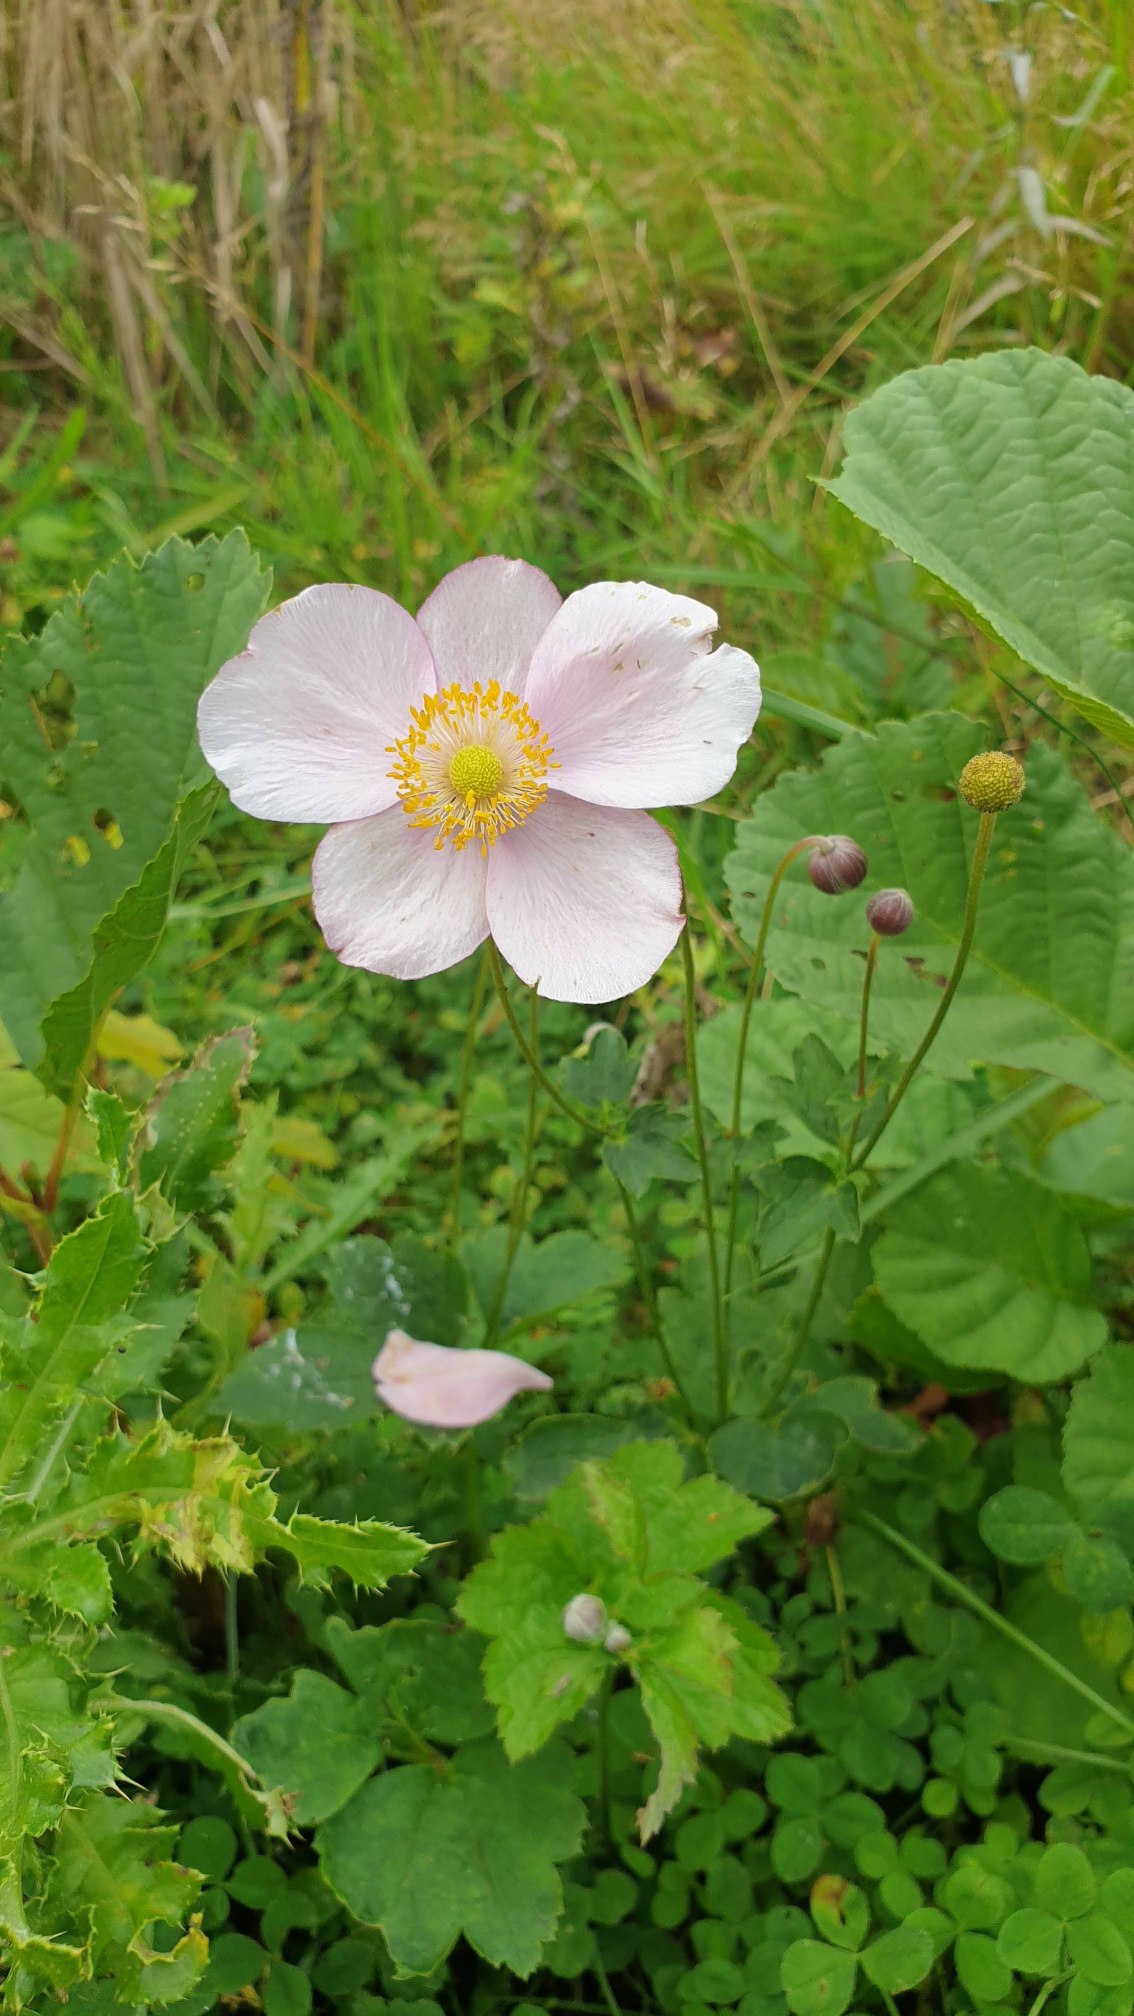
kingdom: Plantae
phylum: Tracheophyta
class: Magnoliopsida
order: Ranunculales
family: Ranunculaceae
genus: Eriocapitella
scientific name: Eriocapitella hupehensis
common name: Høst-anemone
